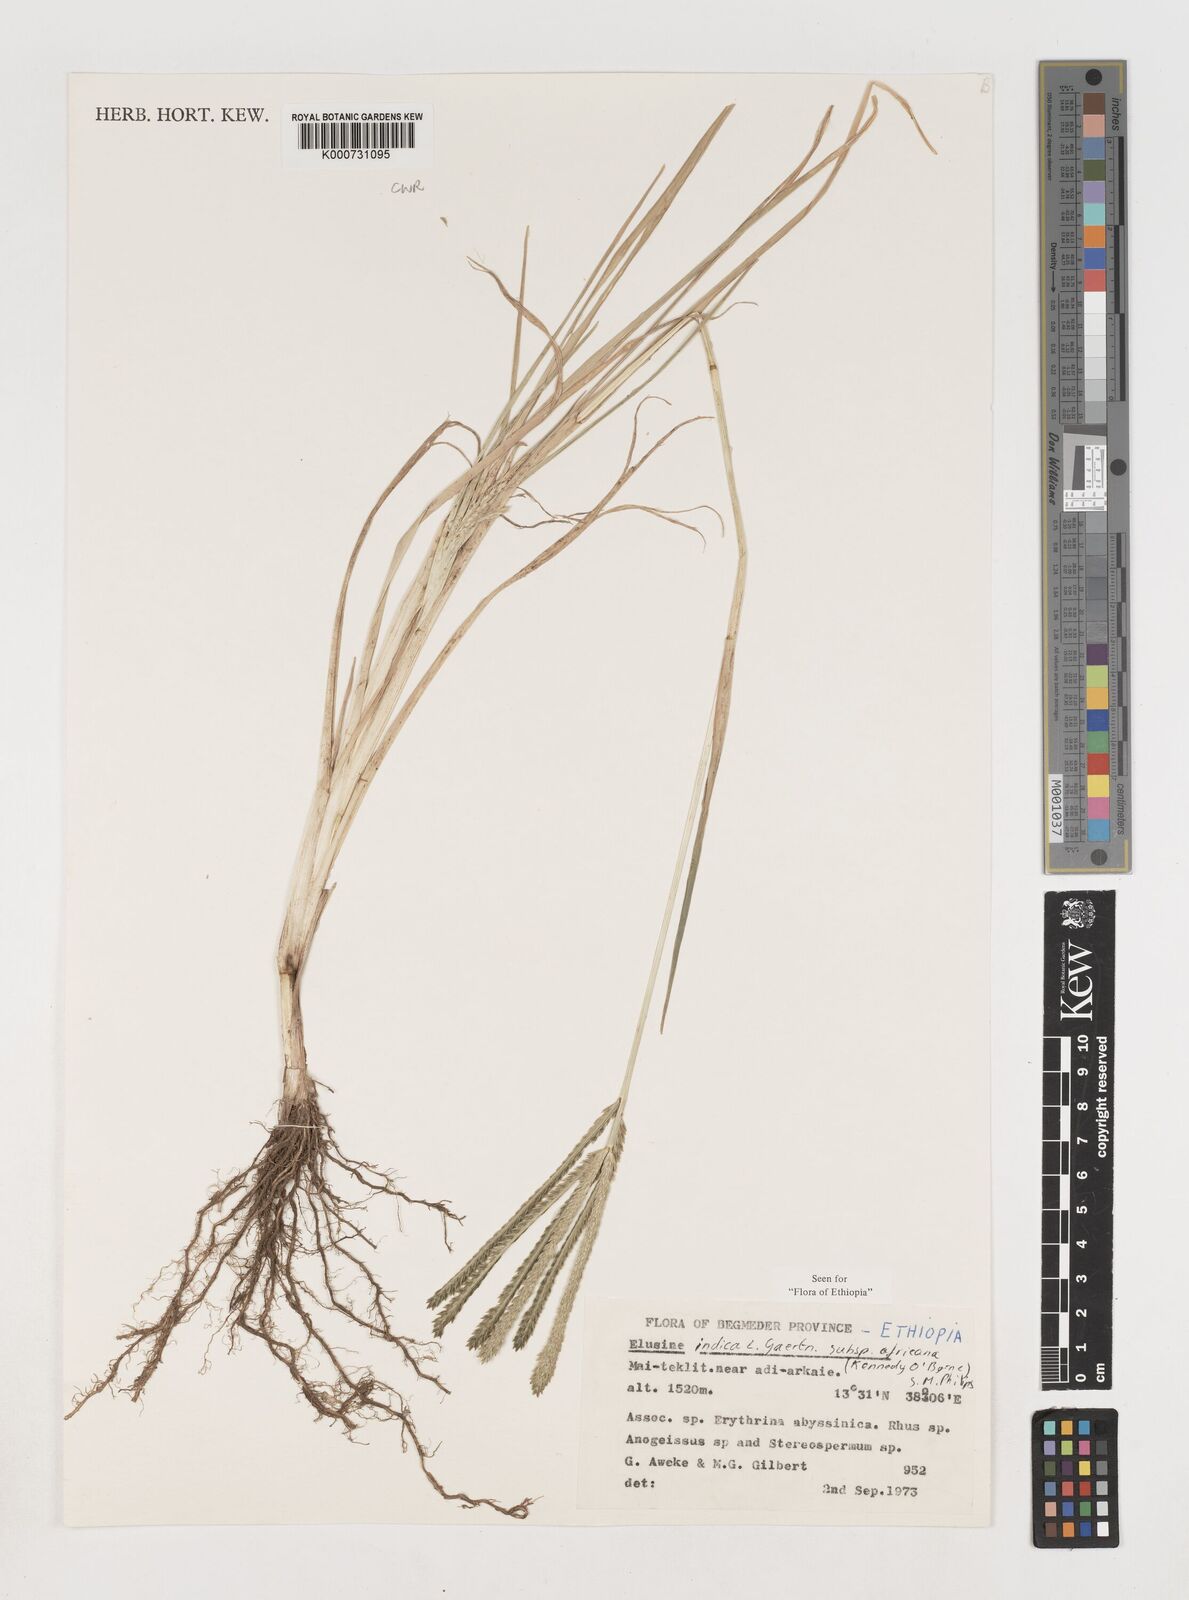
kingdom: Plantae
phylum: Tracheophyta
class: Liliopsida
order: Poales
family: Poaceae
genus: Eleusine
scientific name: Eleusine africana
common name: Wild african finger millet
